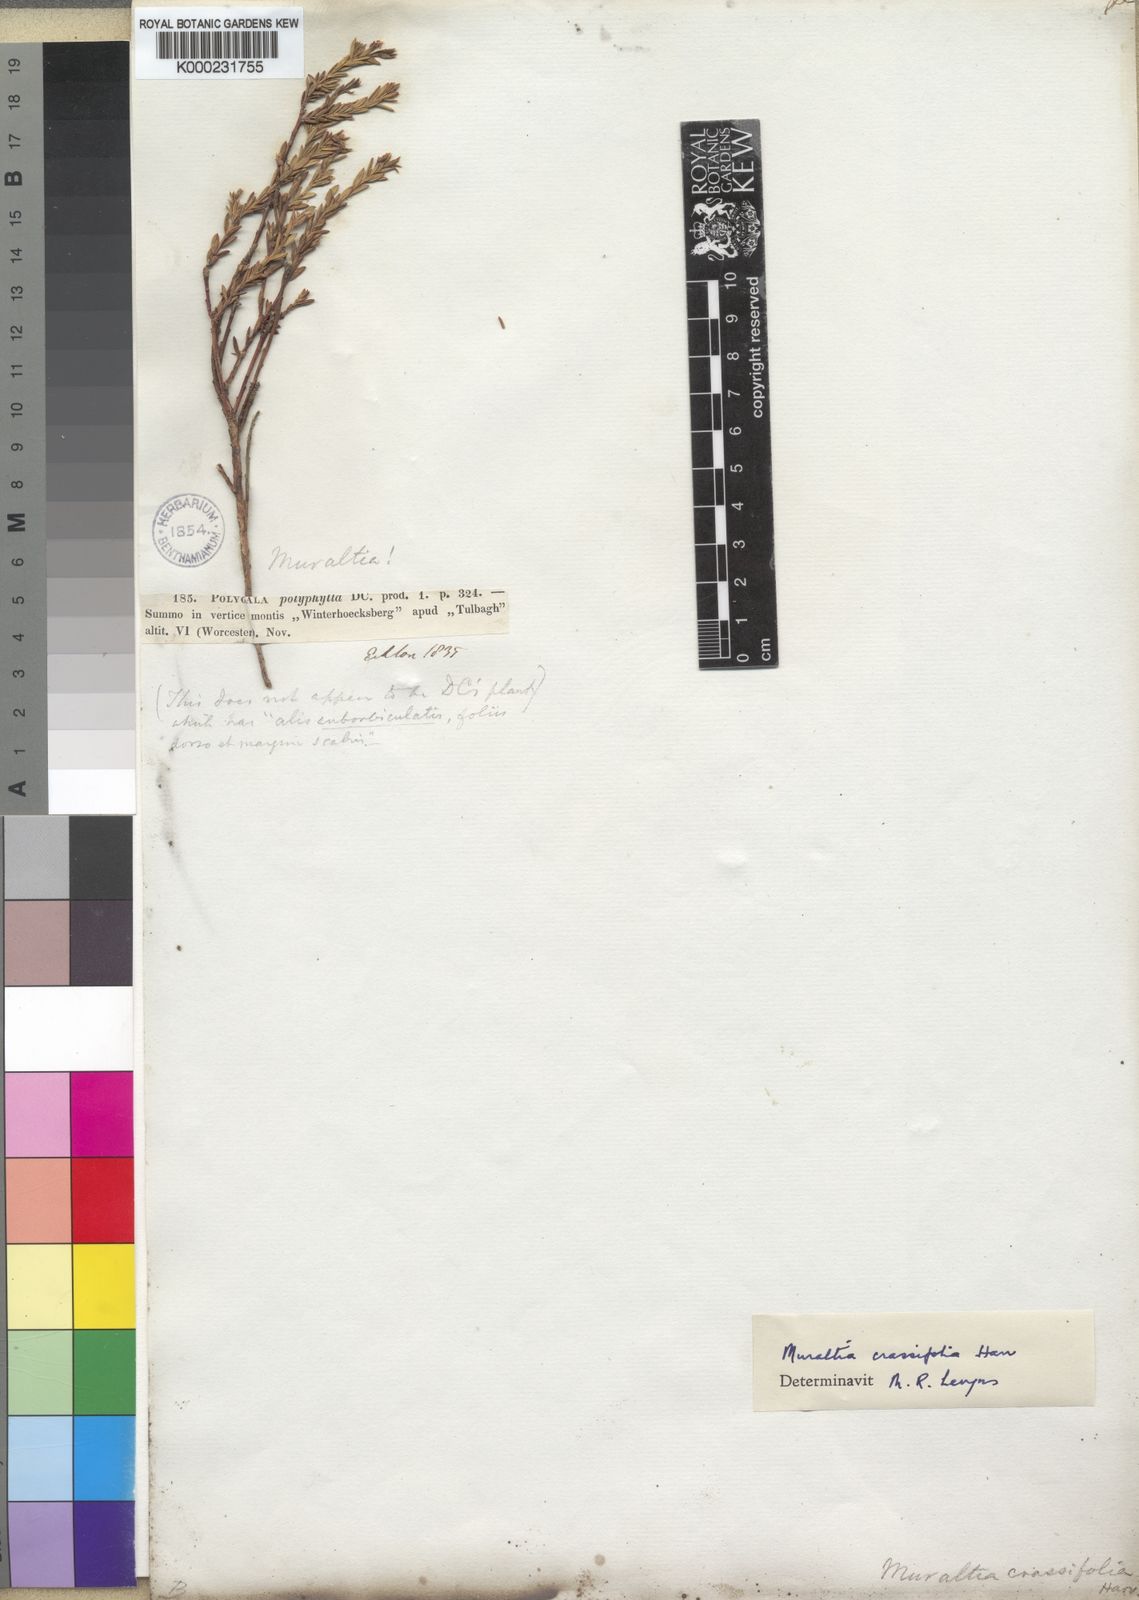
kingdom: Plantae
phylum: Tracheophyta
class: Magnoliopsida
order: Fabales
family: Polygalaceae
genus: Muraltia
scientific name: Muraltia polyphylla
